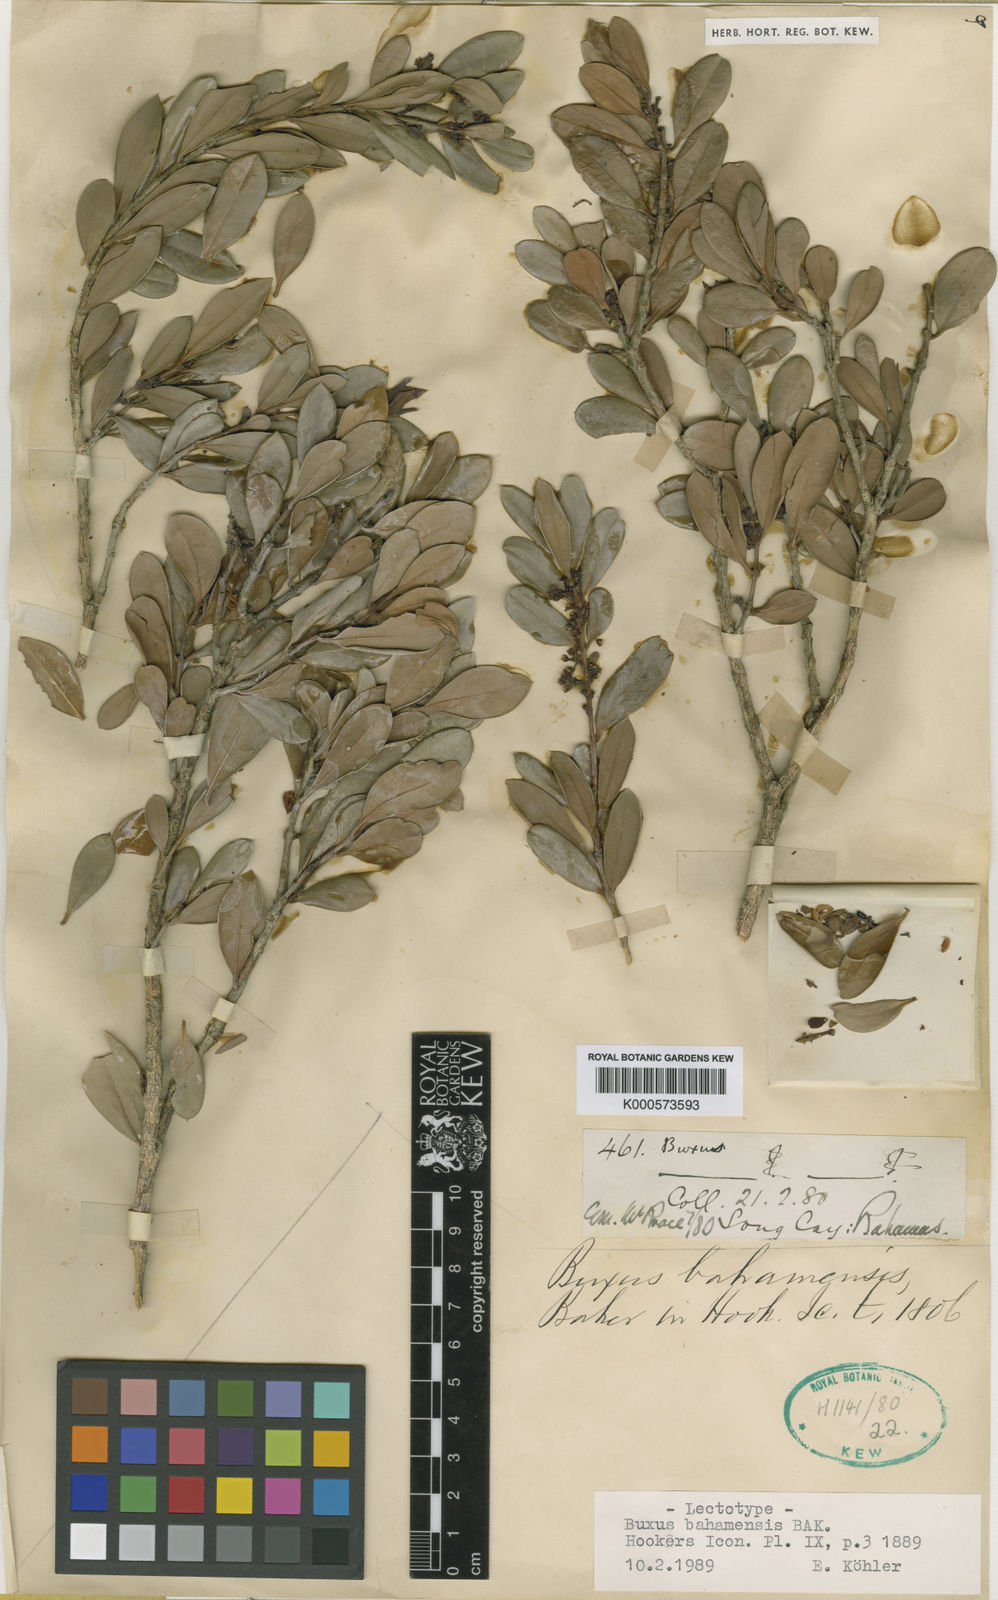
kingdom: Plantae
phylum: Tracheophyta
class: Magnoliopsida
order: Buxales
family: Buxaceae
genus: Buxus
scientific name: Buxus bahamensis
